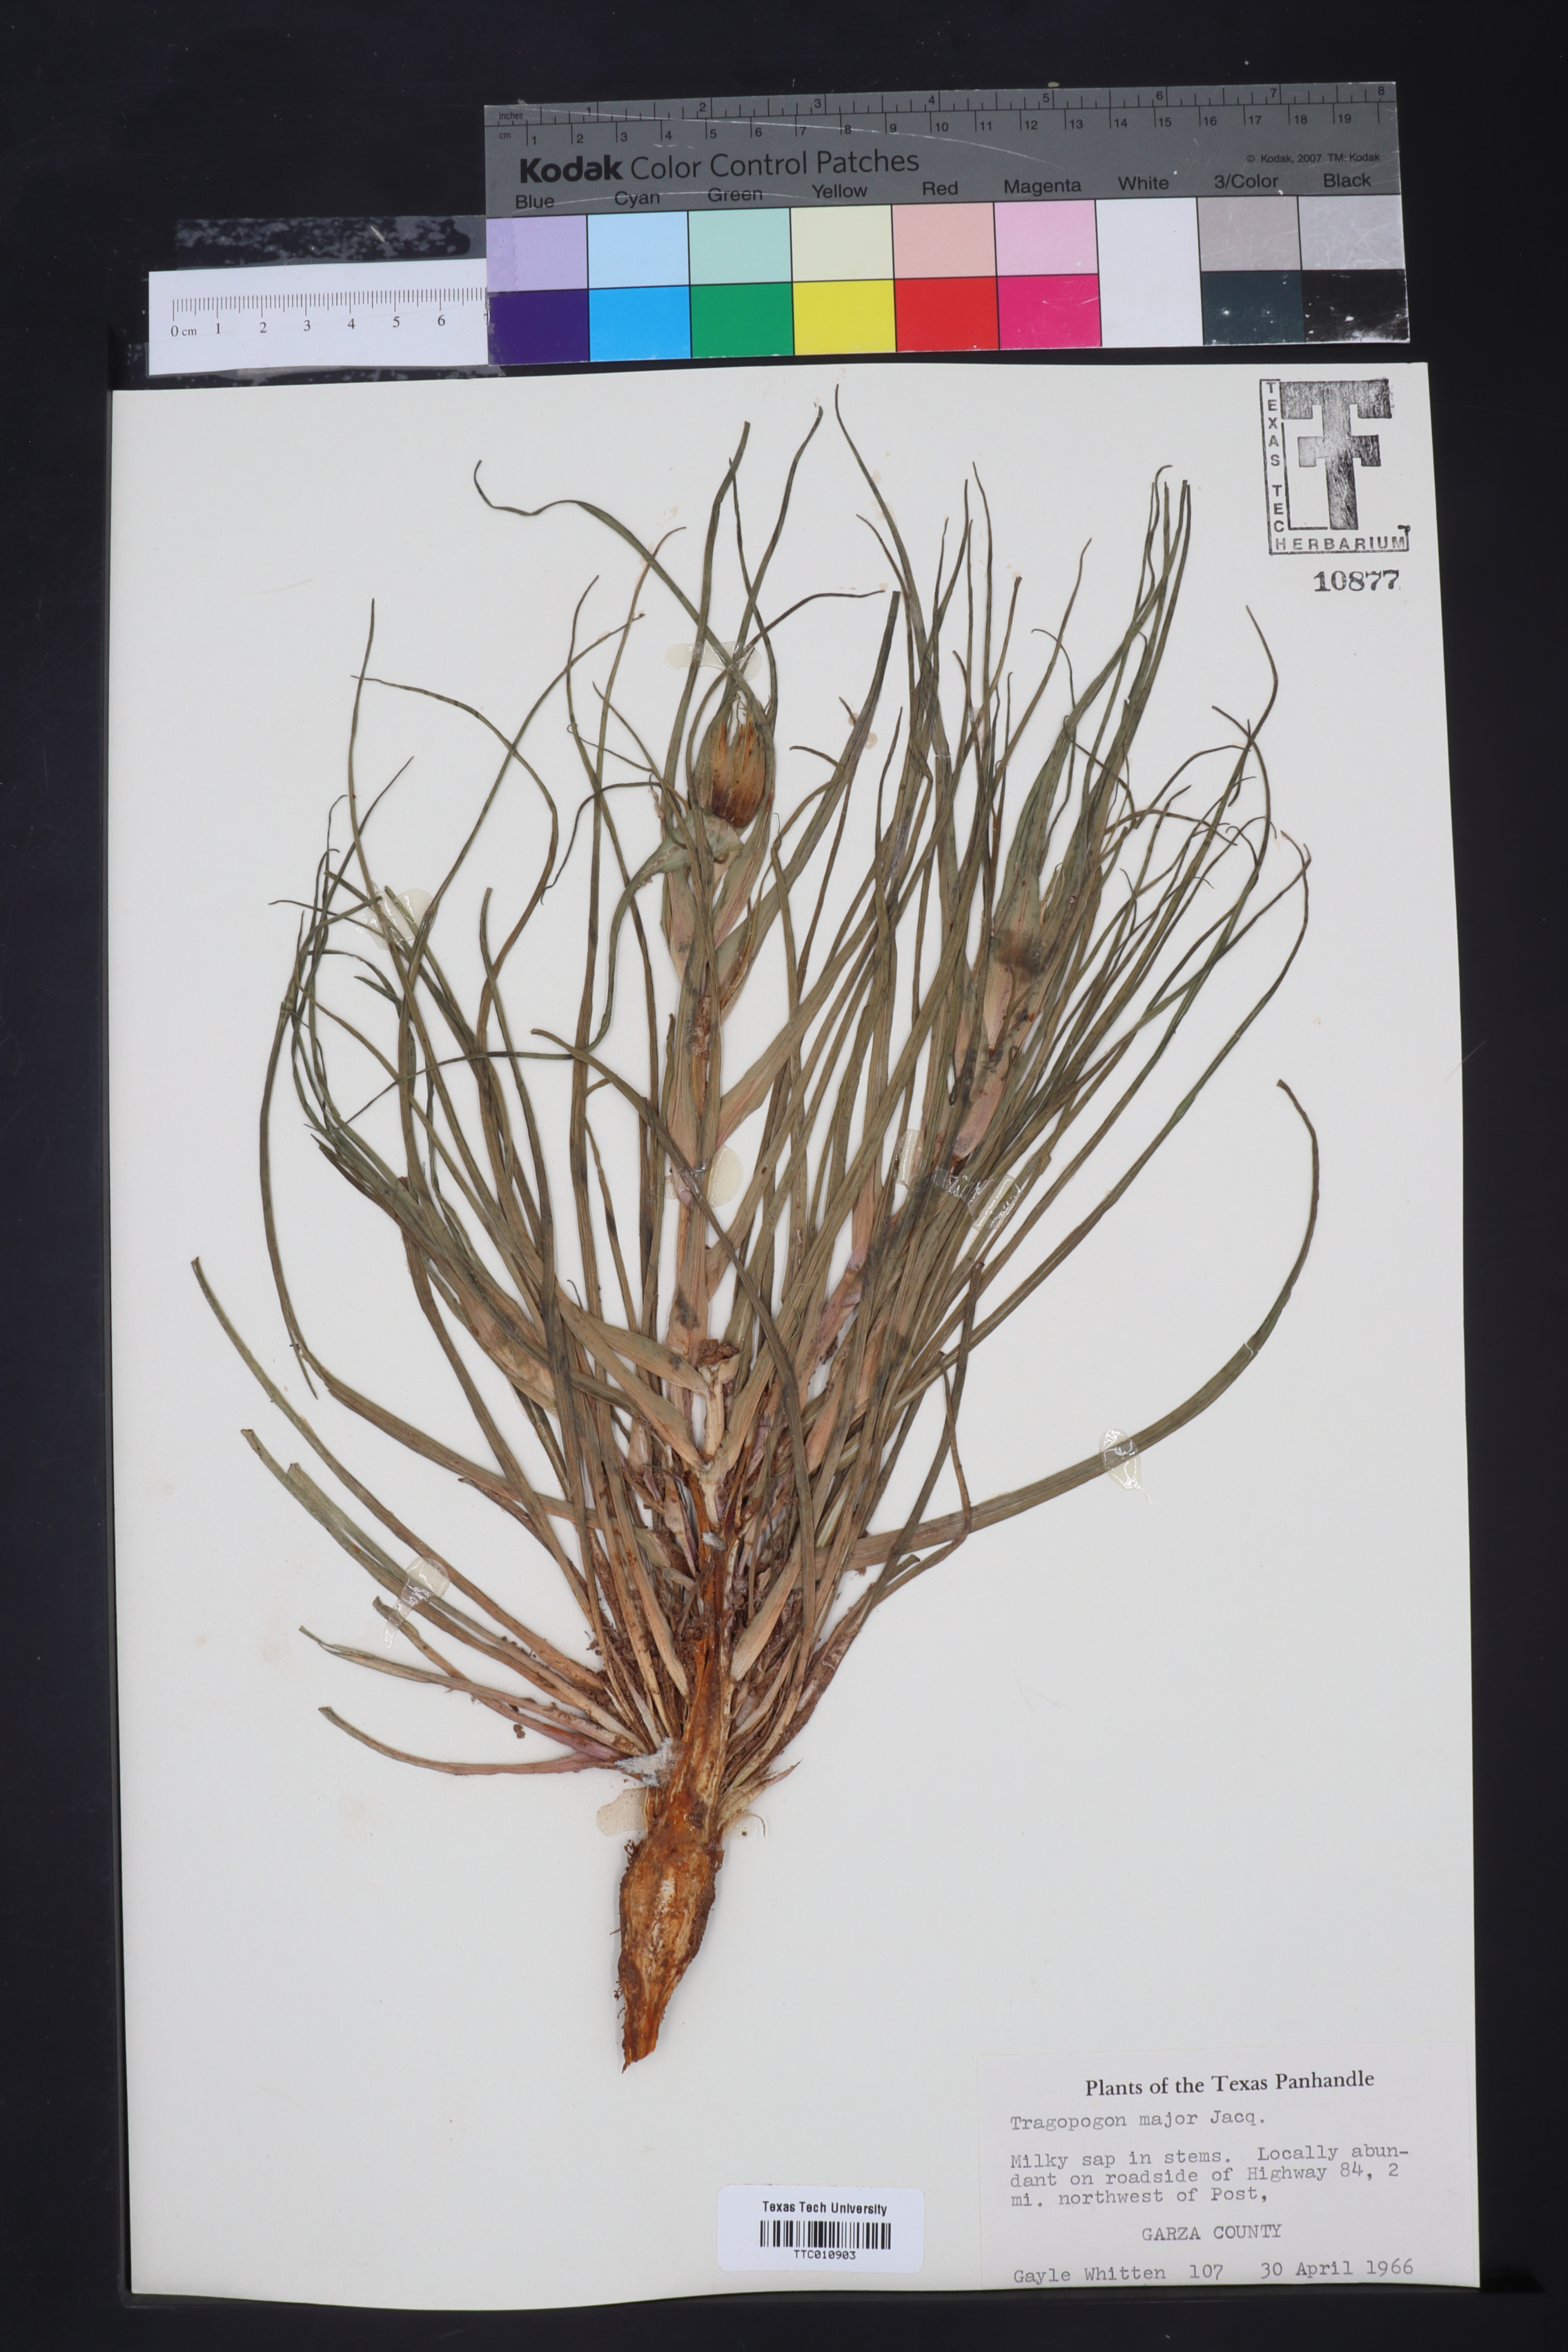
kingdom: Plantae
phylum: Tracheophyta
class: Magnoliopsida
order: Asterales
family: Asteraceae
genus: Tragopogon
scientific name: Tragopogon dubius
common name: Yellow salsify
